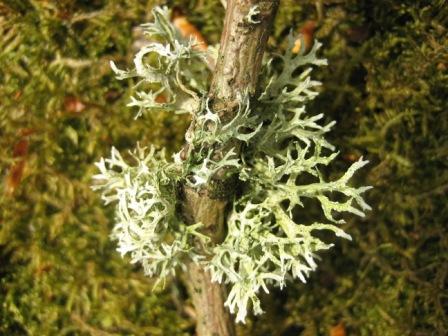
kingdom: Fungi
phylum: Ascomycota
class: Lecanoromycetes
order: Lecanorales
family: Parmeliaceae
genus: Evernia
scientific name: Evernia prunastri
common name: almindelig slåenlav
